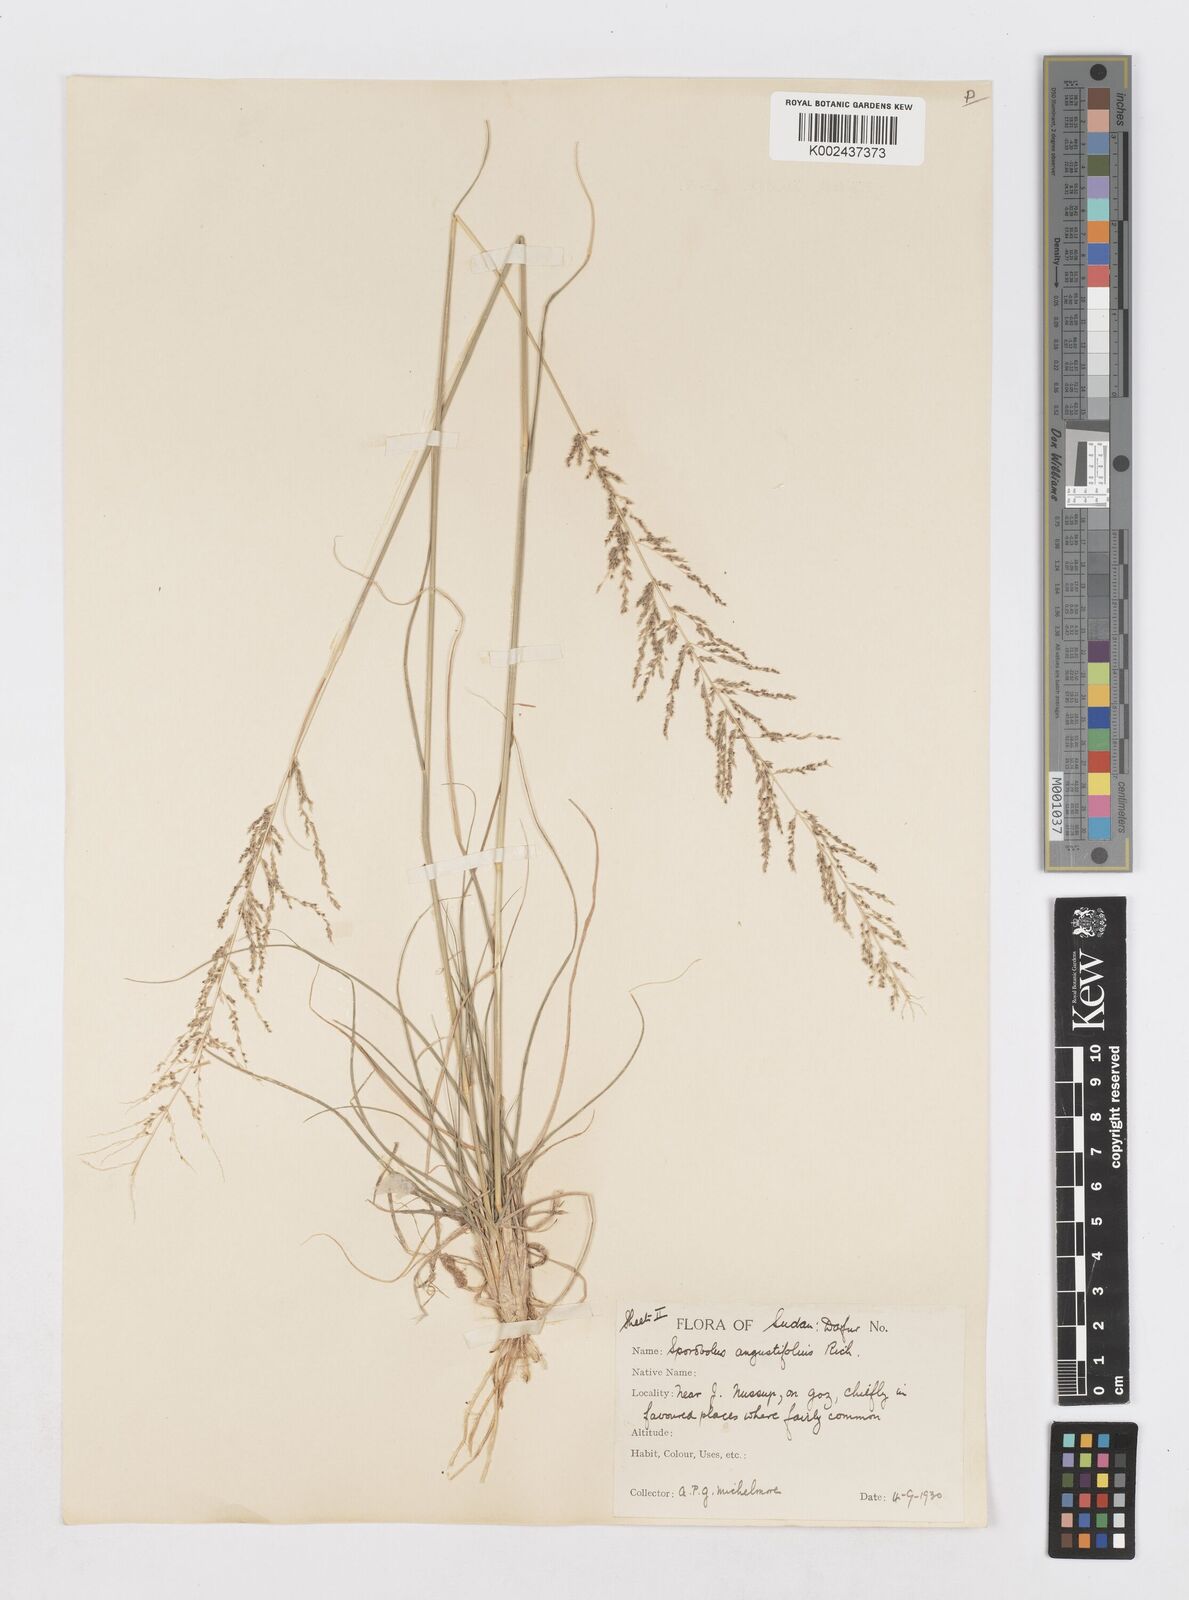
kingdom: Plantae
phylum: Tracheophyta
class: Liliopsida
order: Poales
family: Poaceae
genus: Sporobolus
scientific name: Sporobolus pellucidus
